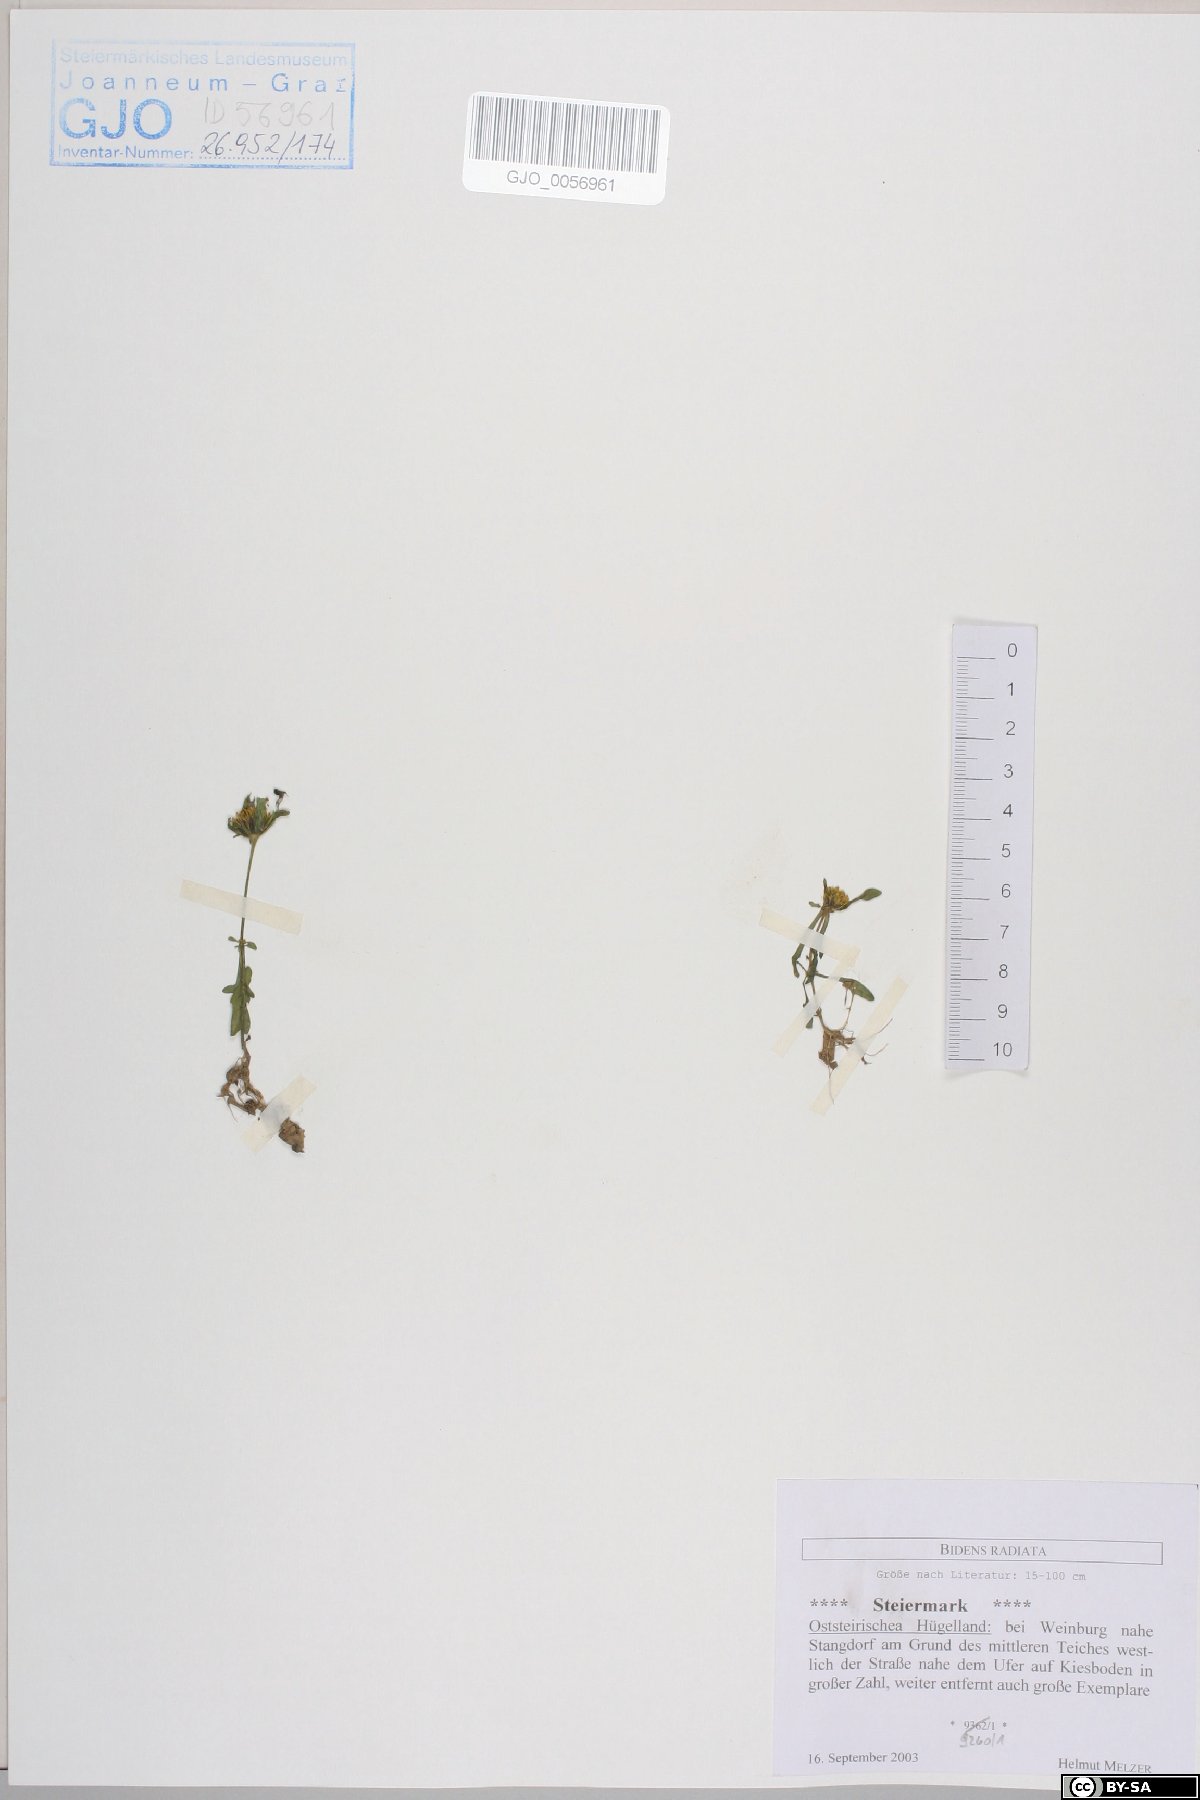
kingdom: Plantae
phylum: Tracheophyta
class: Magnoliopsida
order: Asterales
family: Asteraceae
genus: Bidens
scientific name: Bidens radiata
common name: Radiating bur-marigold
